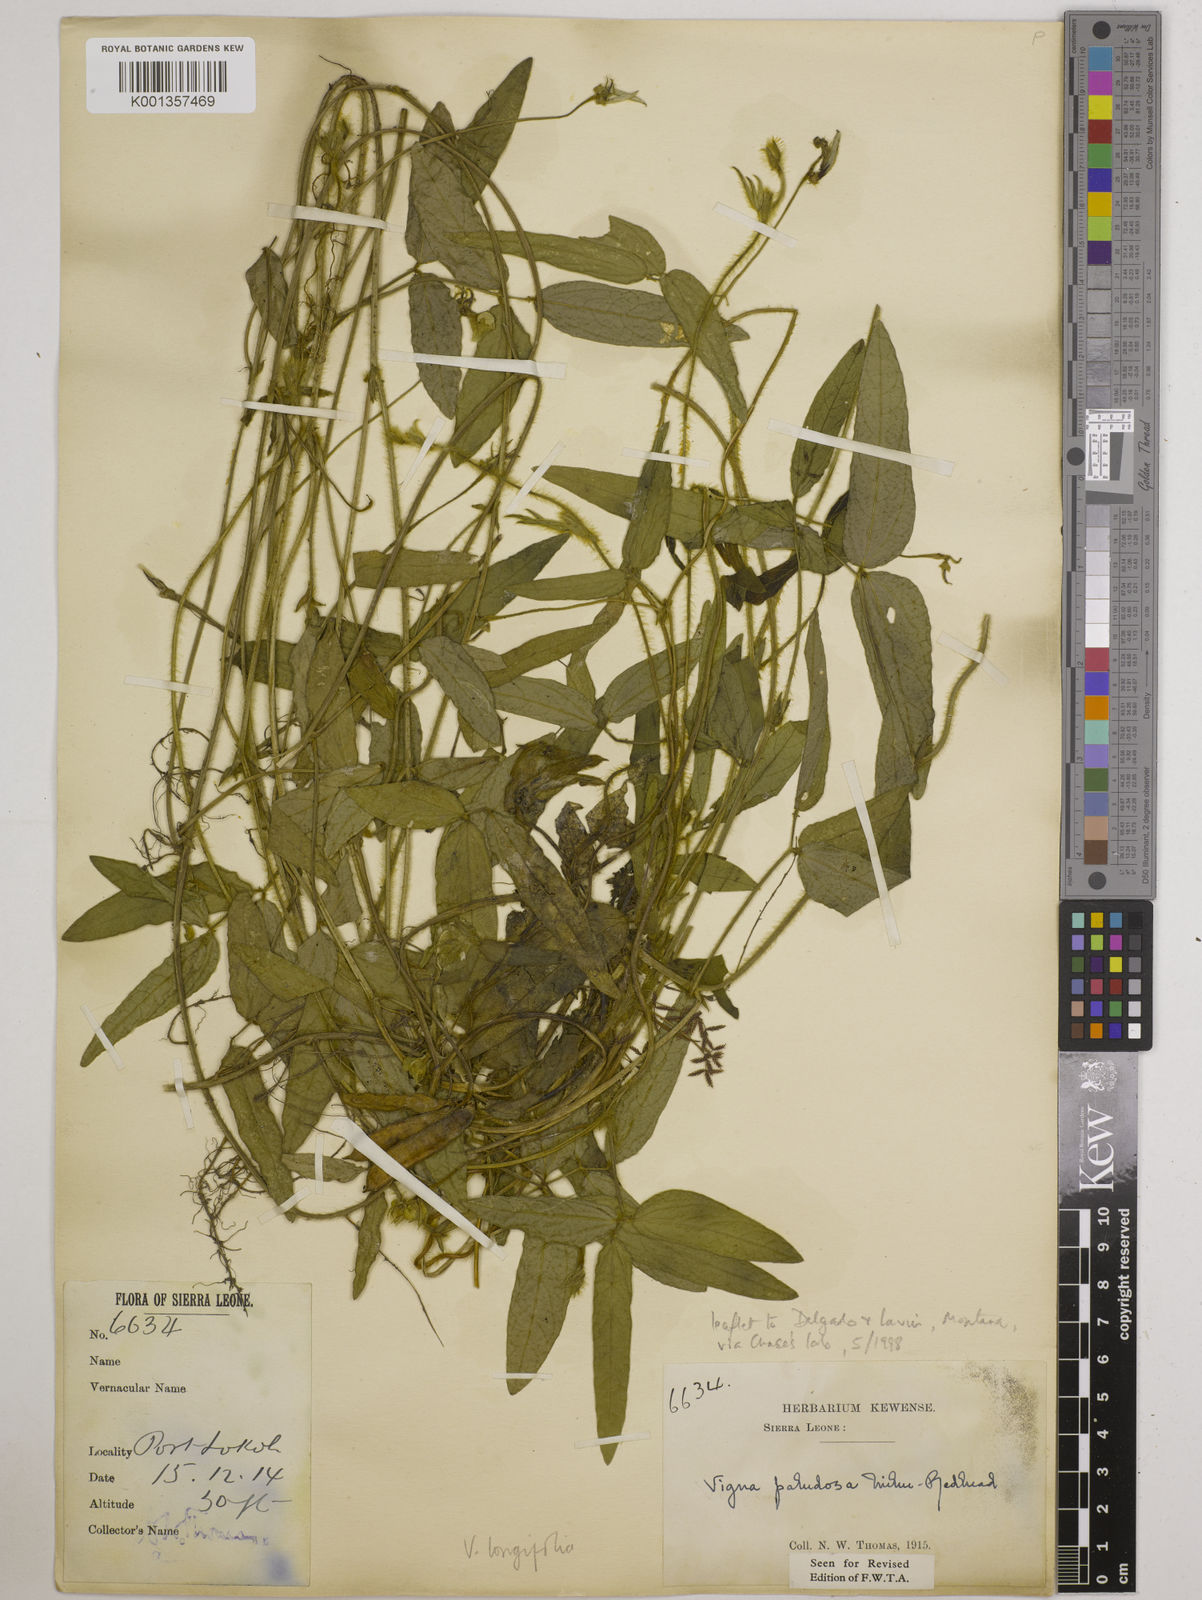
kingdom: Plantae
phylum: Tracheophyta
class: Magnoliopsida
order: Fabales
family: Fabaceae
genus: Vigna
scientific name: Vigna longifolia
